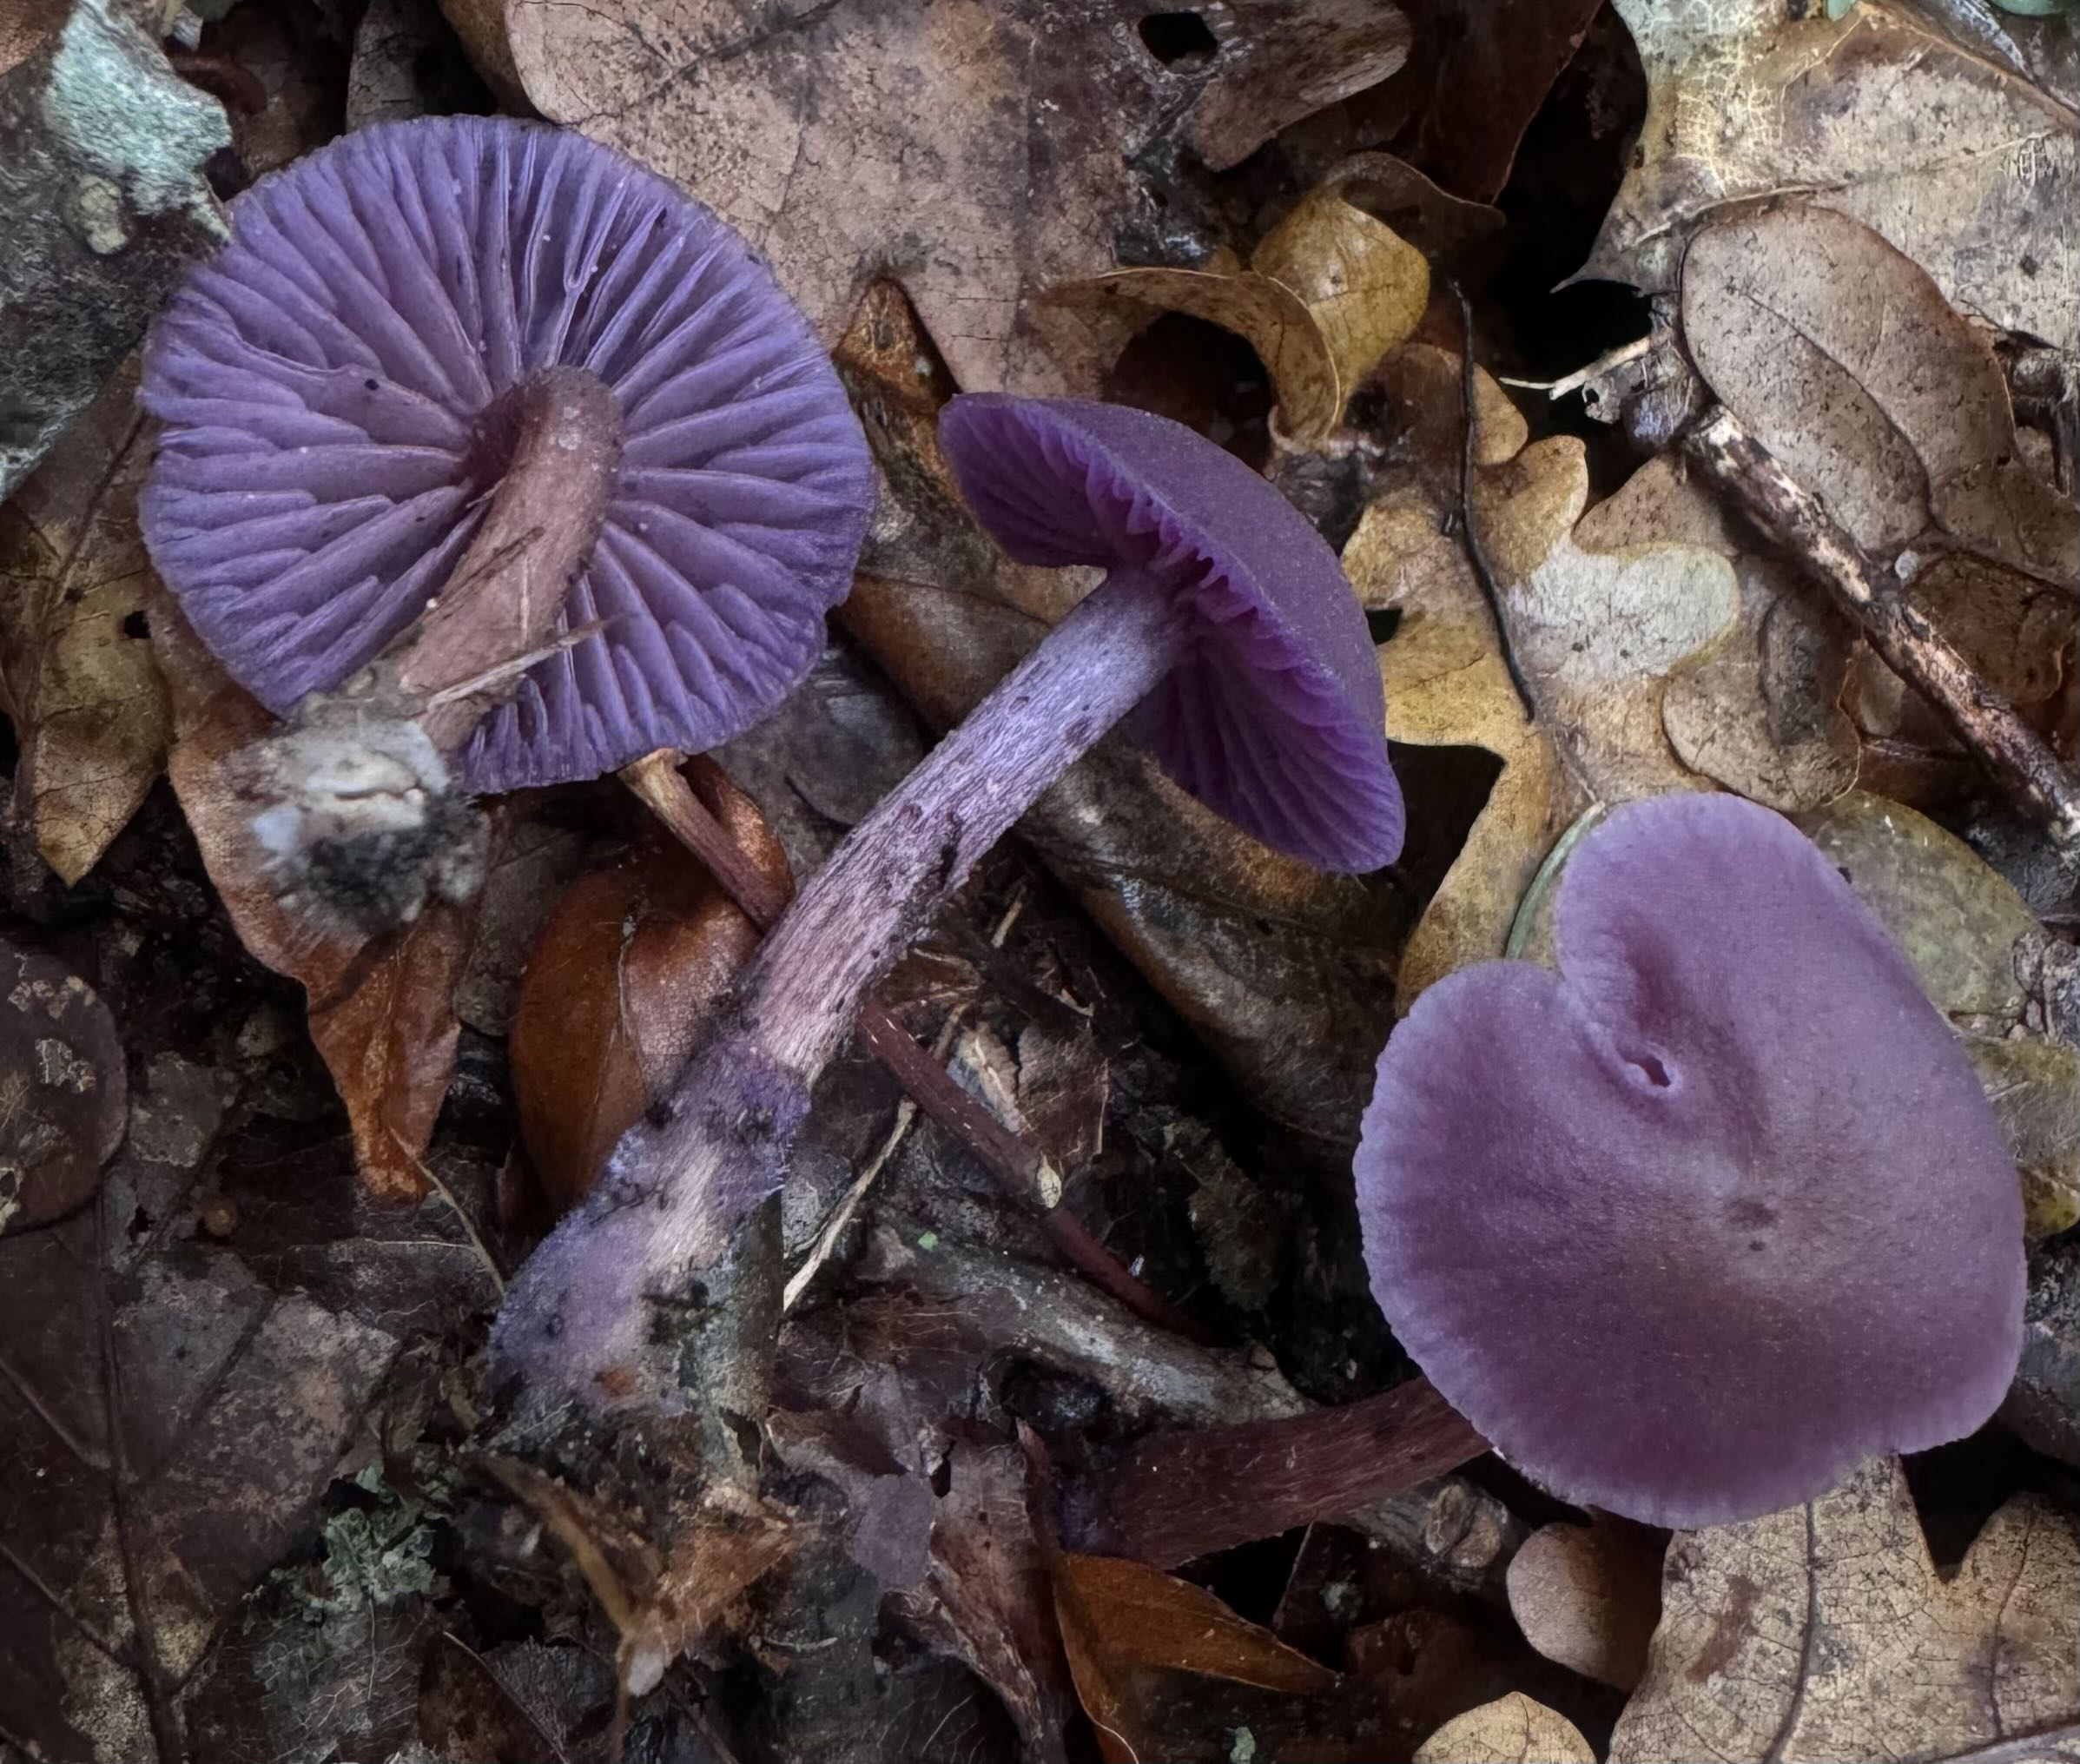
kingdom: Fungi
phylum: Basidiomycota
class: Agaricomycetes
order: Agaricales
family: Hydnangiaceae
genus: Laccaria
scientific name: Laccaria amethystina
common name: violet ametysthat
